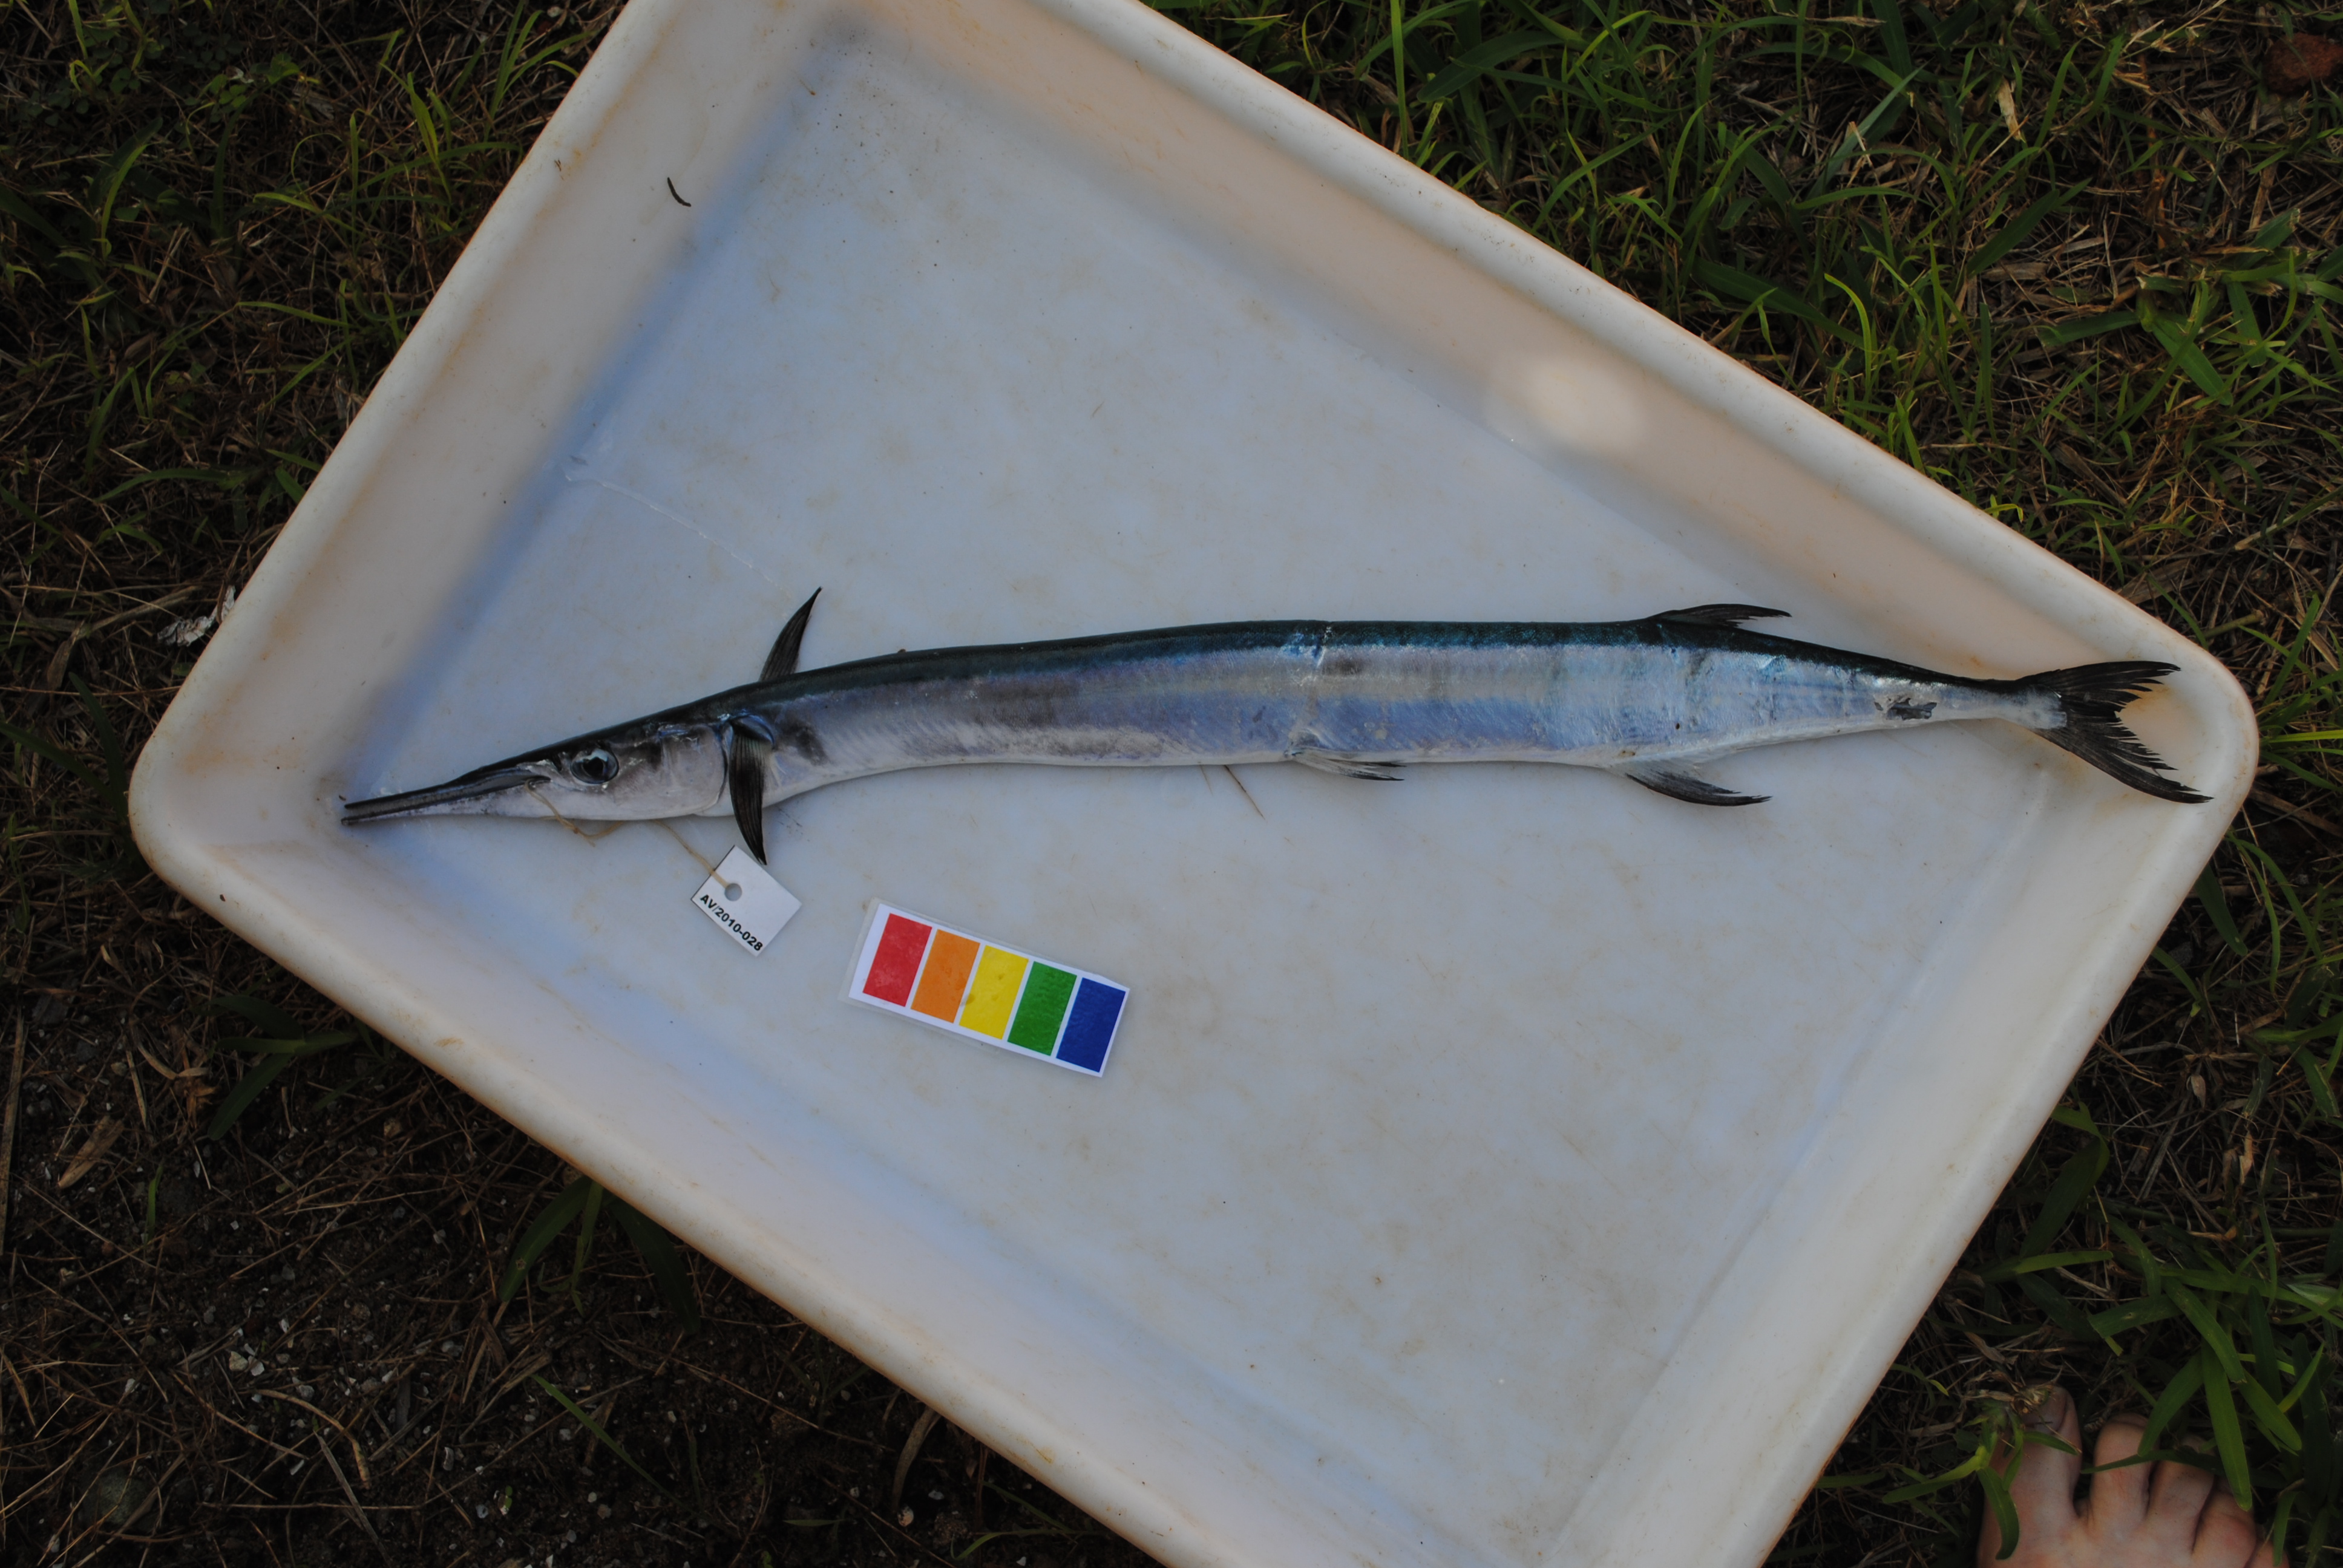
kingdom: Animalia
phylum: Chordata
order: Beloniformes
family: Belonidae
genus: Ablennes
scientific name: Ablennes hians
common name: Flat needlefish
